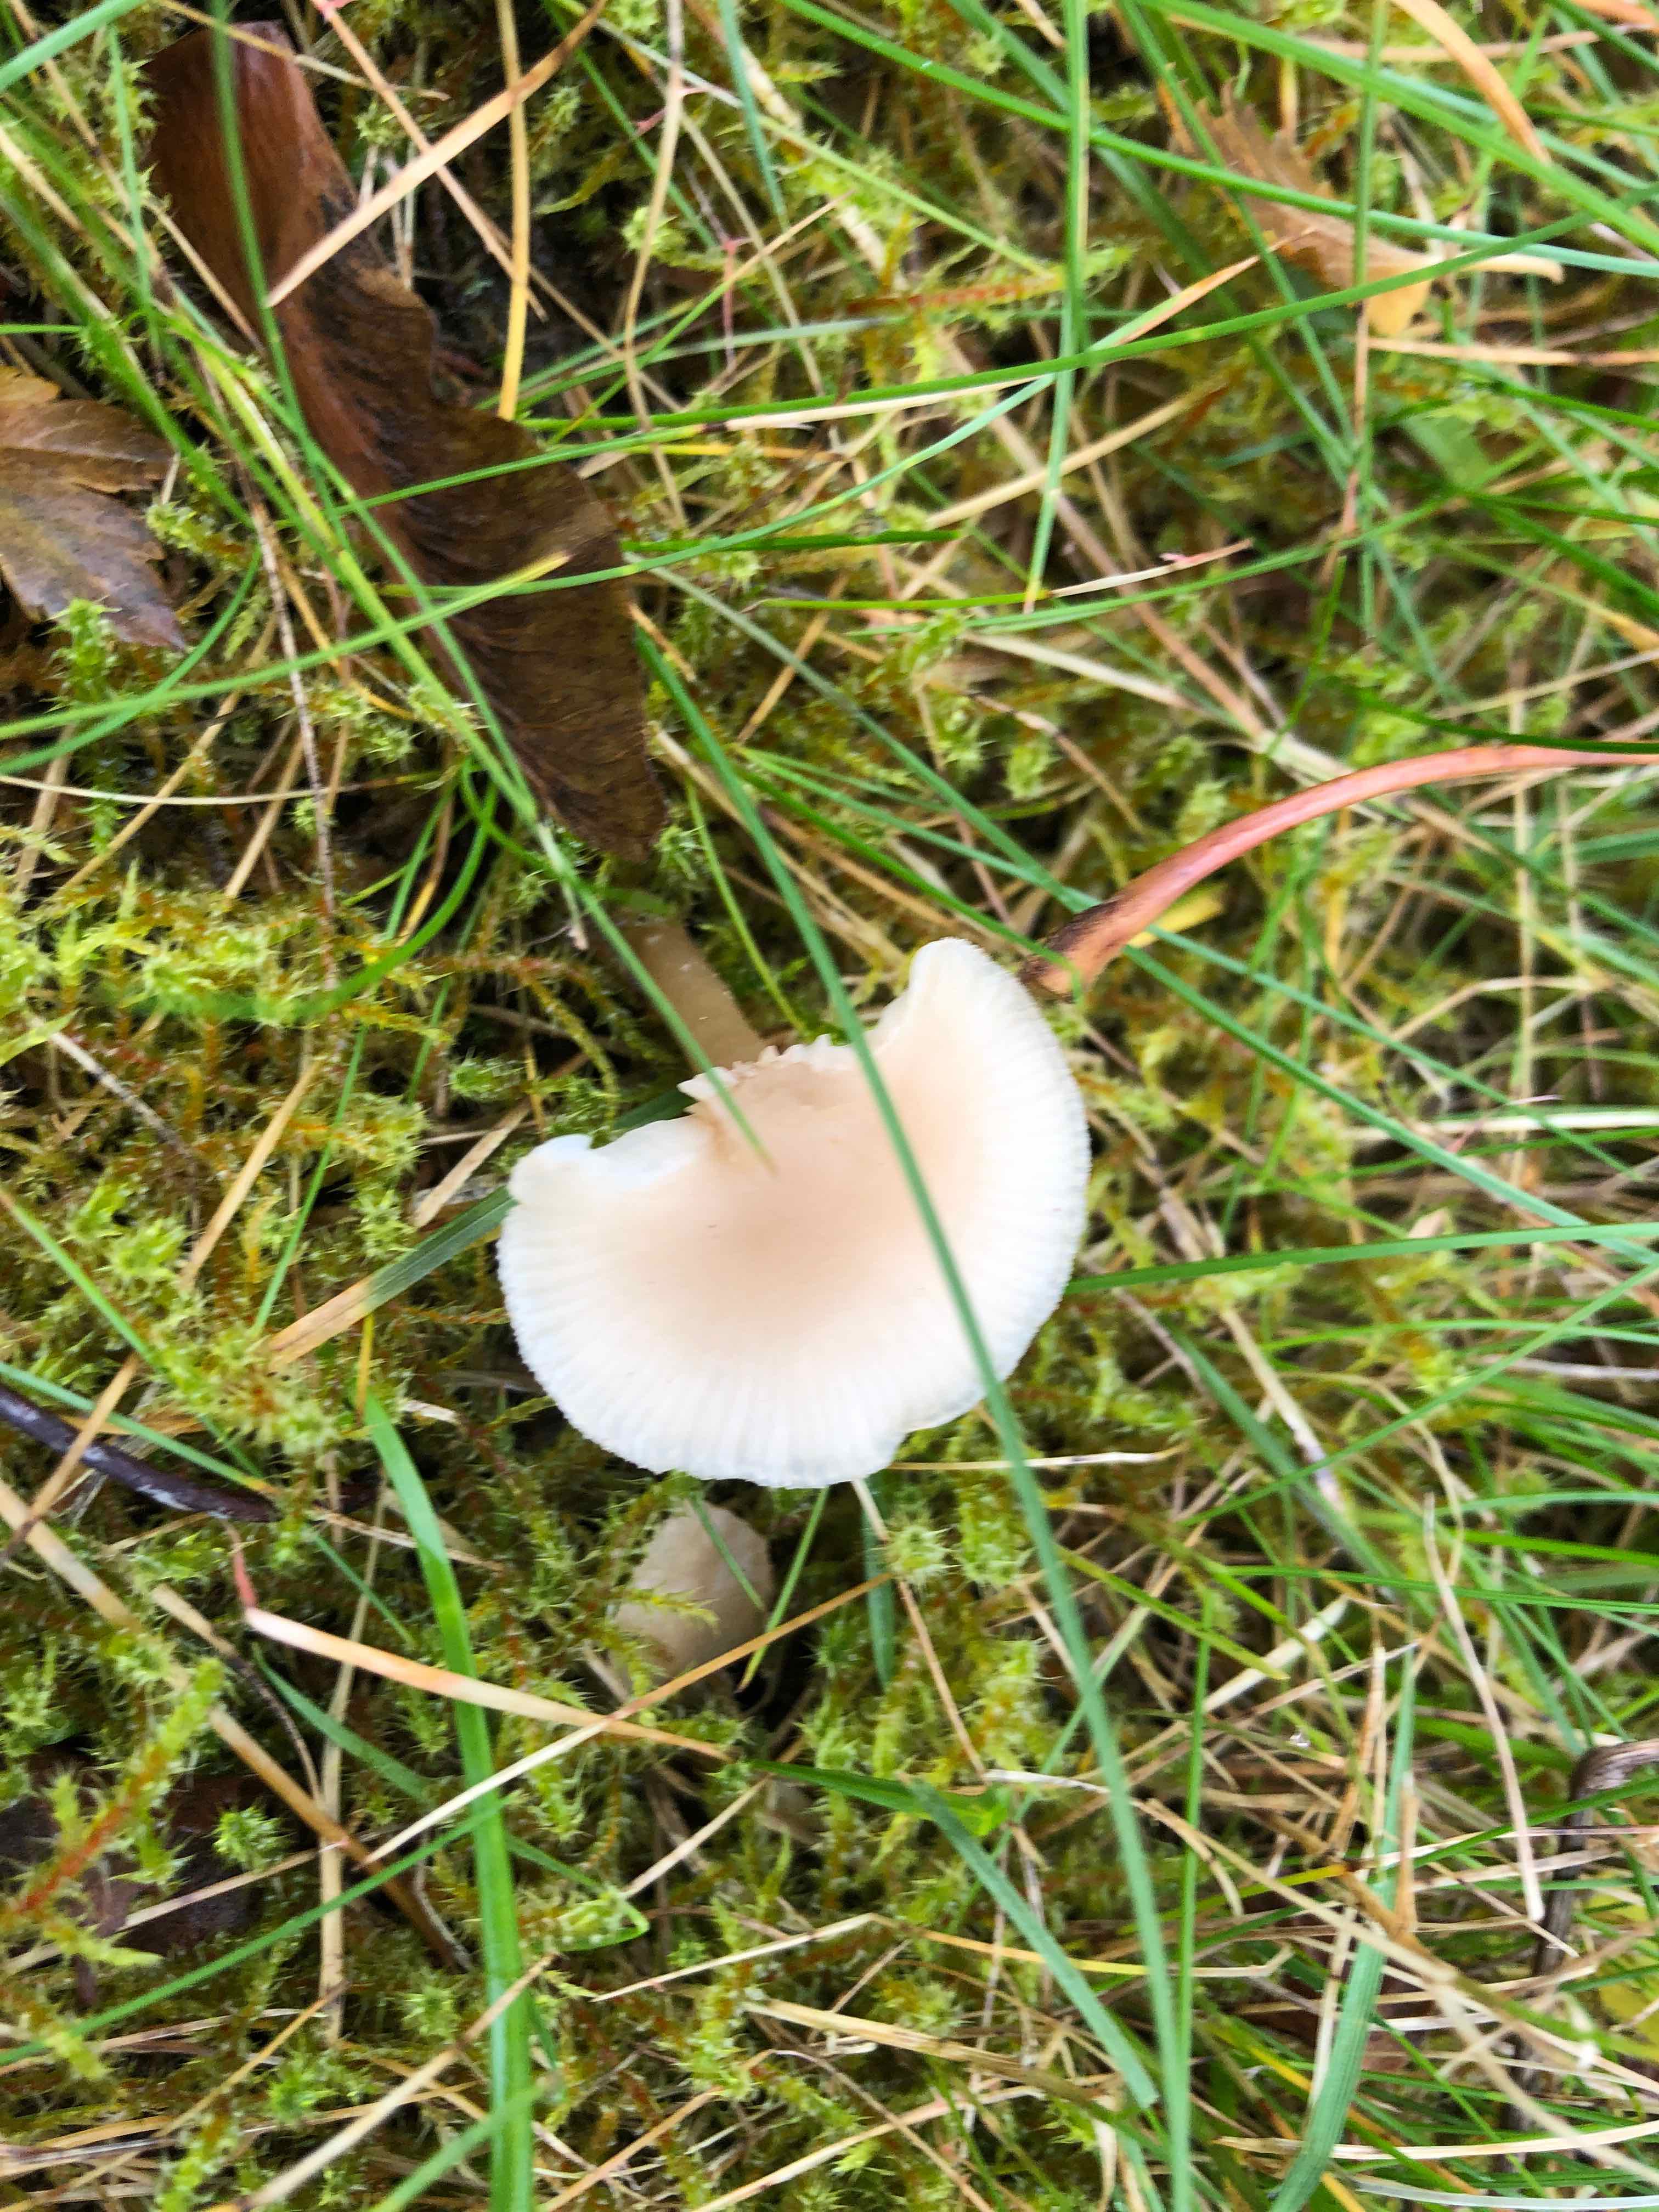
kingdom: Fungi
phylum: Basidiomycota
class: Agaricomycetes
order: Agaricales
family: Tricholomataceae
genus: Clitocybe
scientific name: Clitocybe fragrans
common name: vellugtende tragthat
